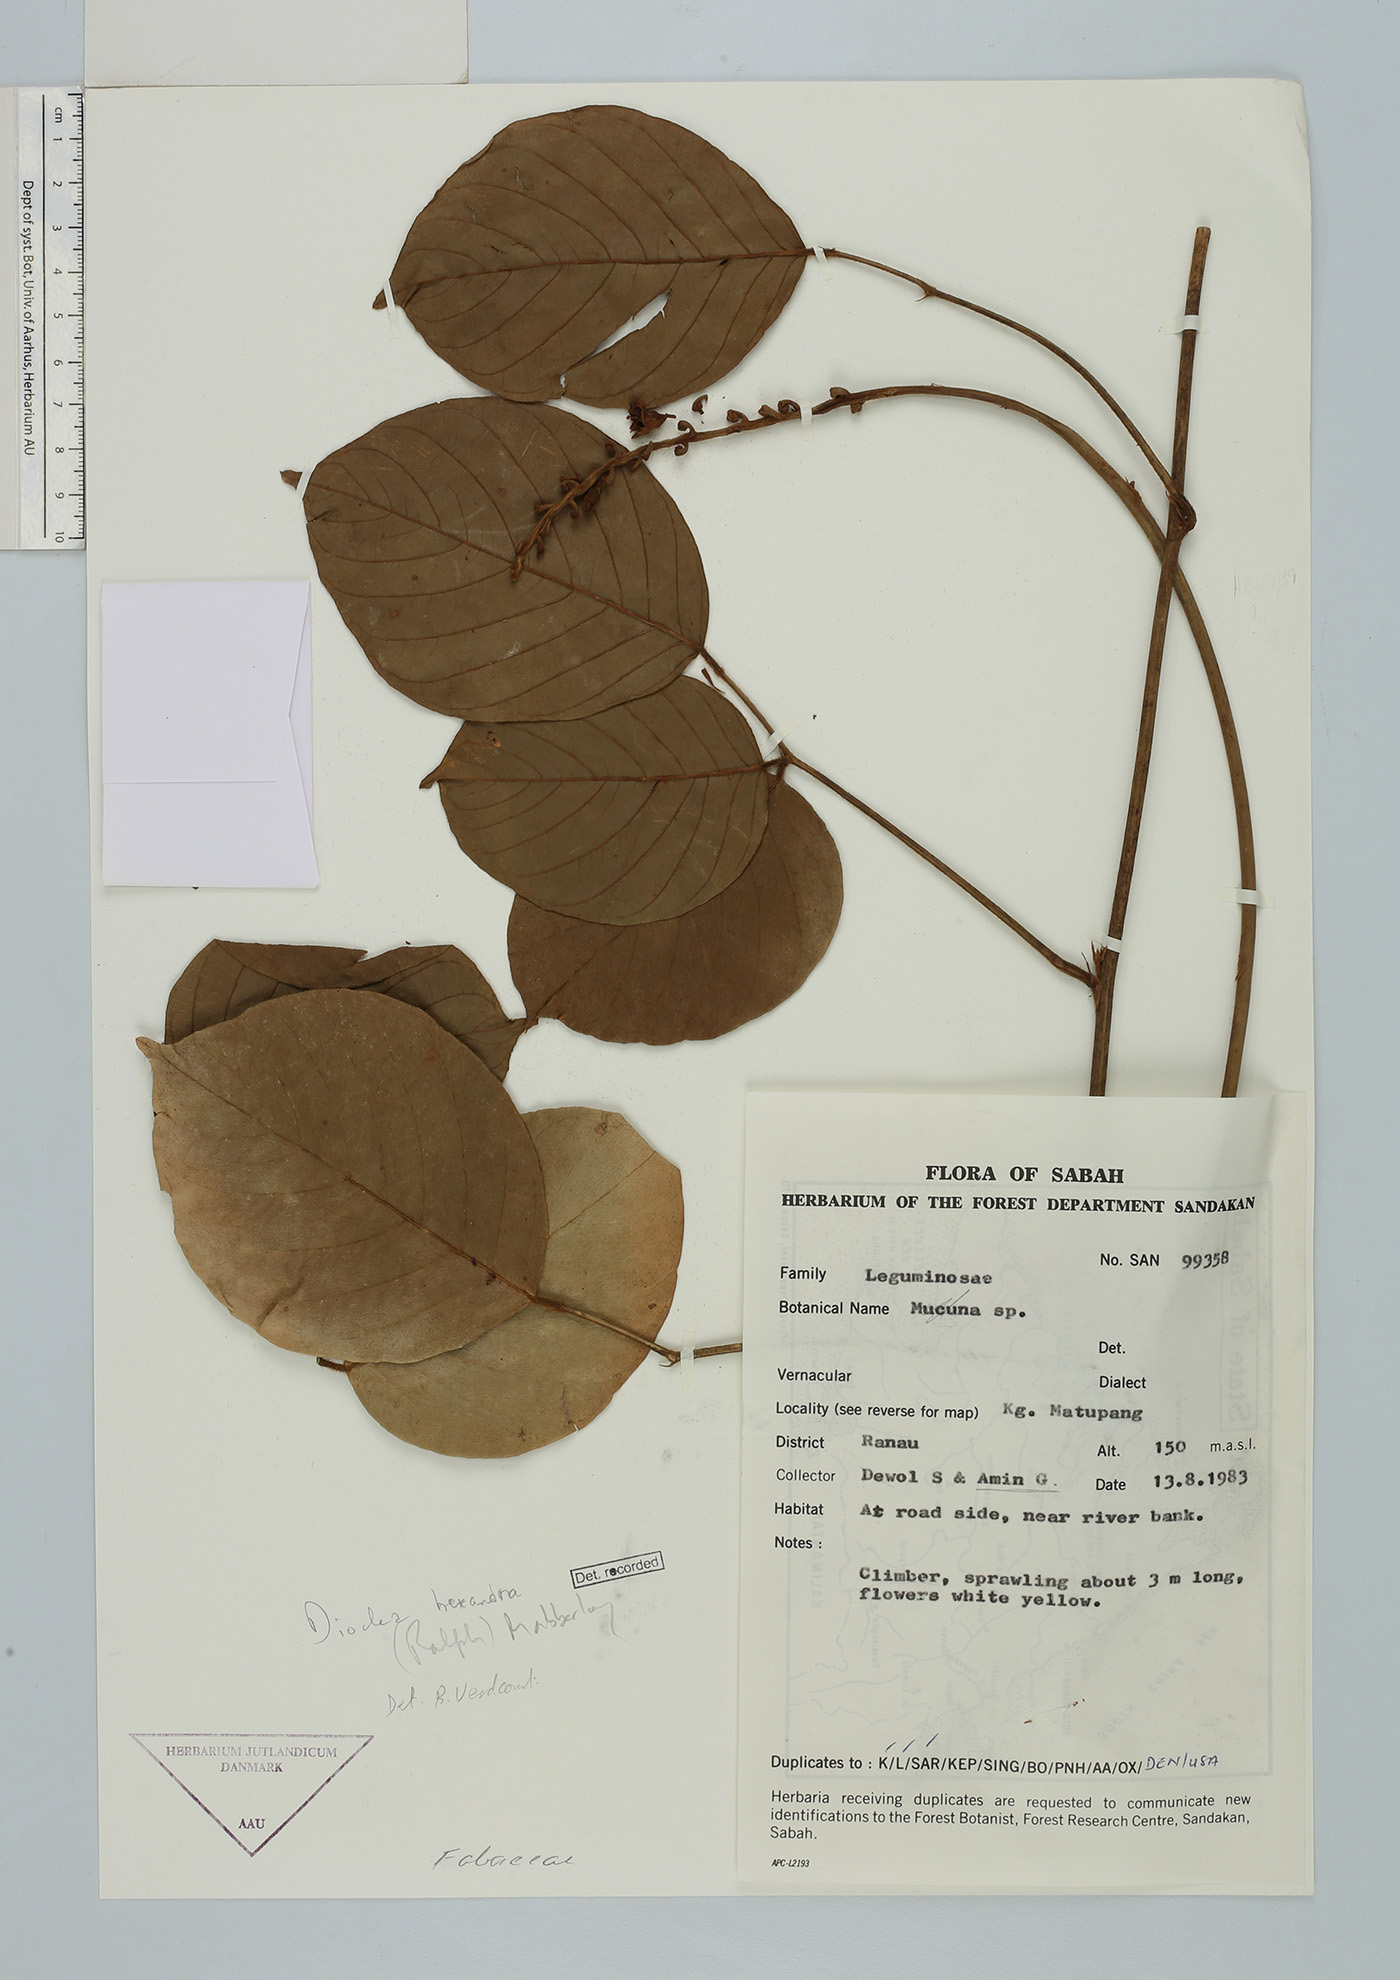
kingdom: Plantae
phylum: Tracheophyta
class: Magnoliopsida
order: Fabales
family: Fabaceae
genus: Macropsychanthus
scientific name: Macropsychanthus hexander
